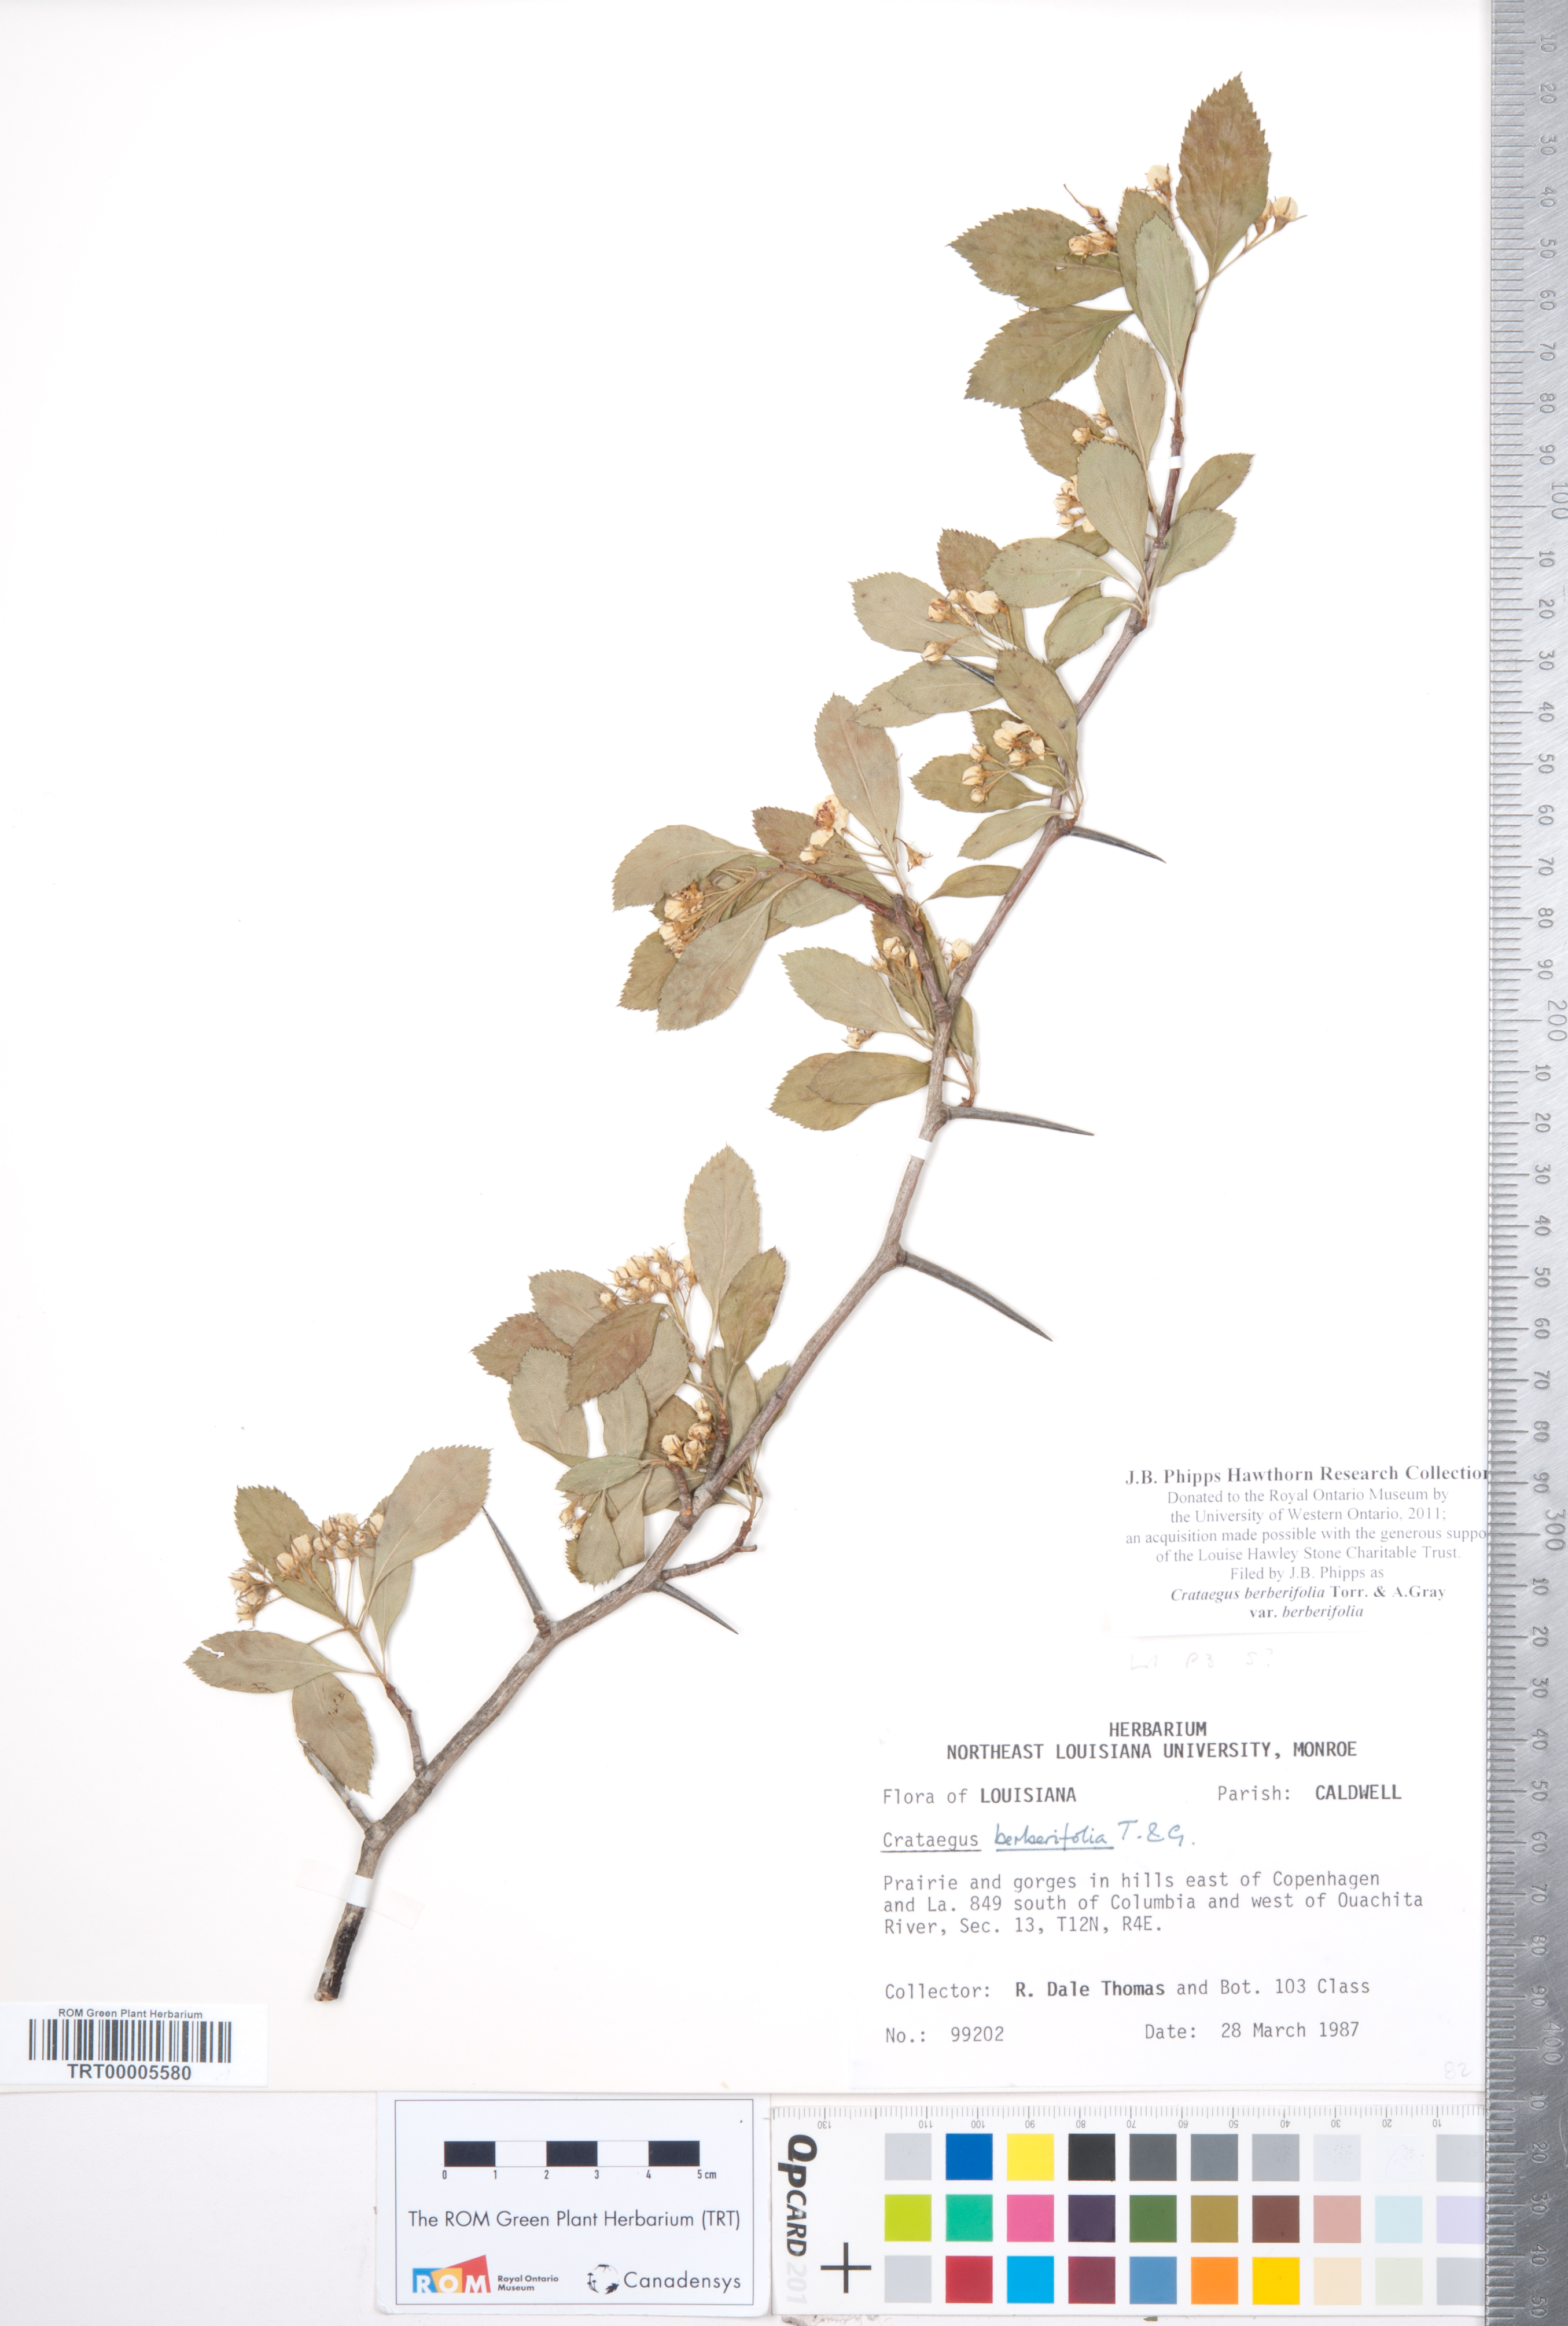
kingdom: Plantae
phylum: Tracheophyta
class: Magnoliopsida
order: Rosales
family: Rosaceae
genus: Crataegus
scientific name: Crataegus berberifolia
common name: Barberry hawthorn
